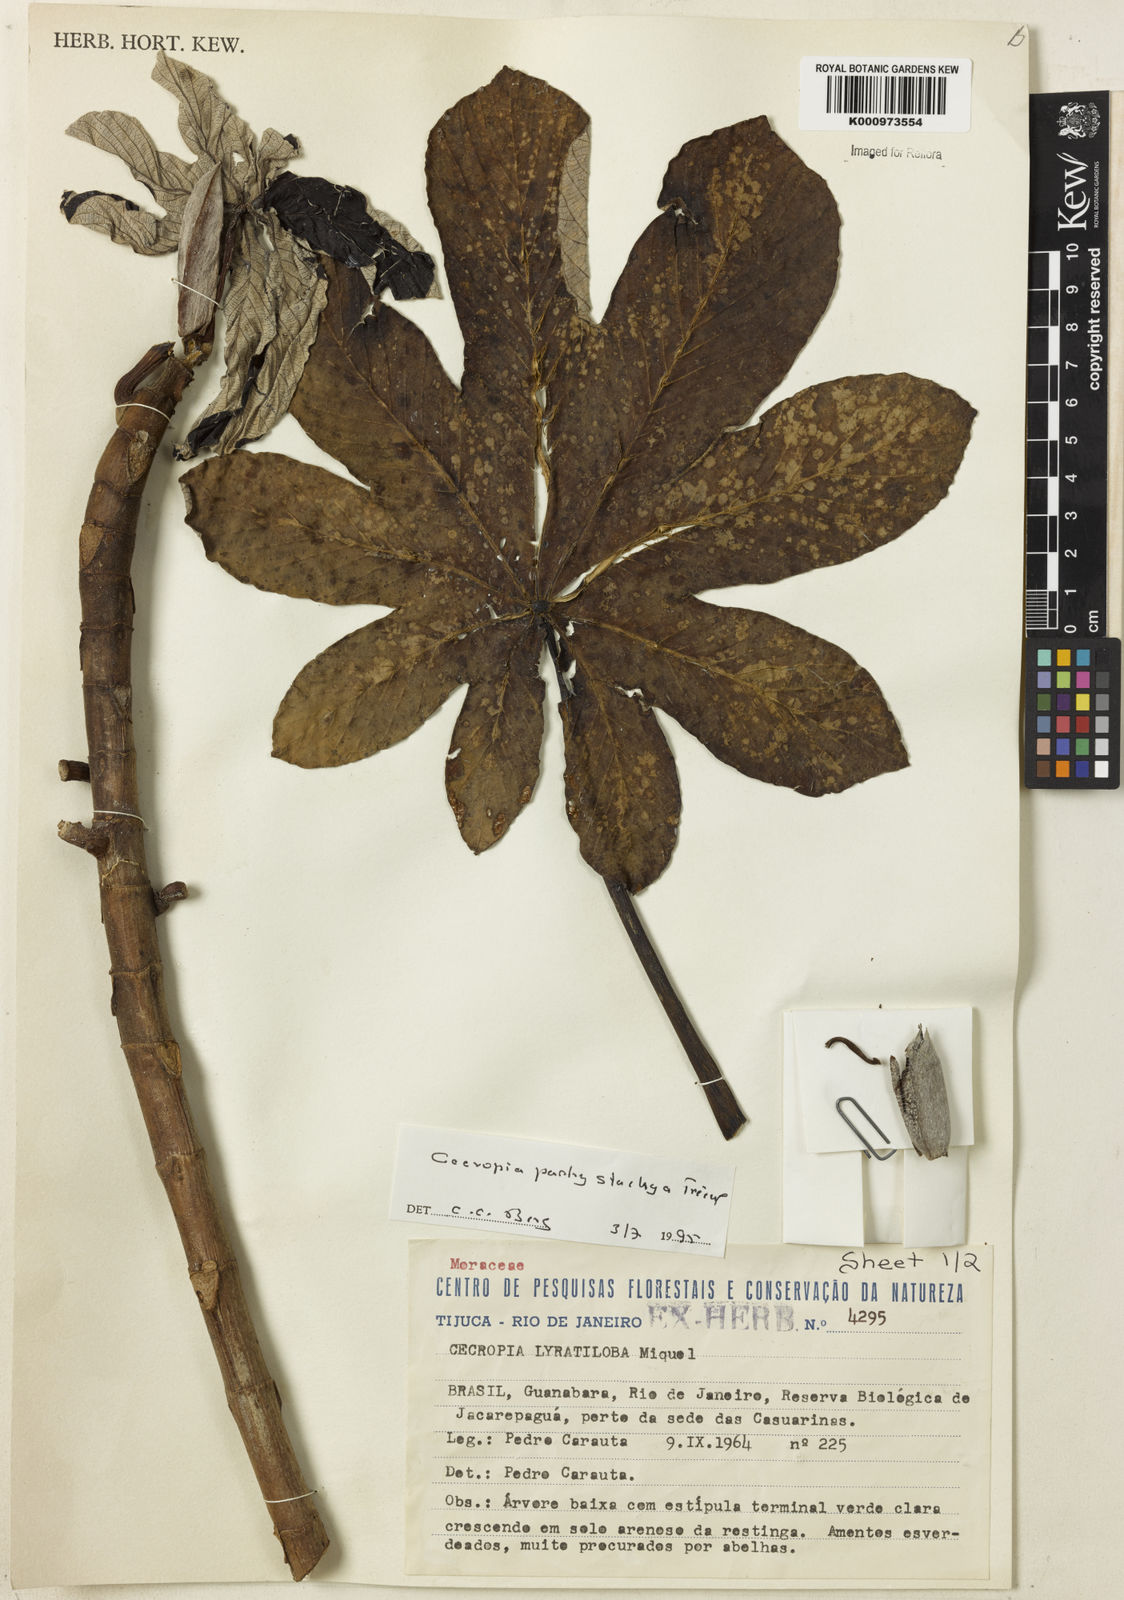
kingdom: Plantae
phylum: Tracheophyta
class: Magnoliopsida
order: Rosales
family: Urticaceae
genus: Cecropia
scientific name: Cecropia
